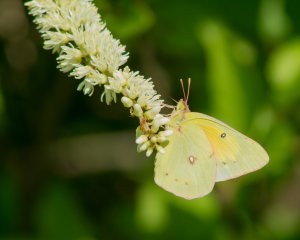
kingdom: Animalia
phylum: Arthropoda
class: Insecta
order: Lepidoptera
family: Pieridae
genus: Colias
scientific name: Colias eurytheme
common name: Orange Sulphur
